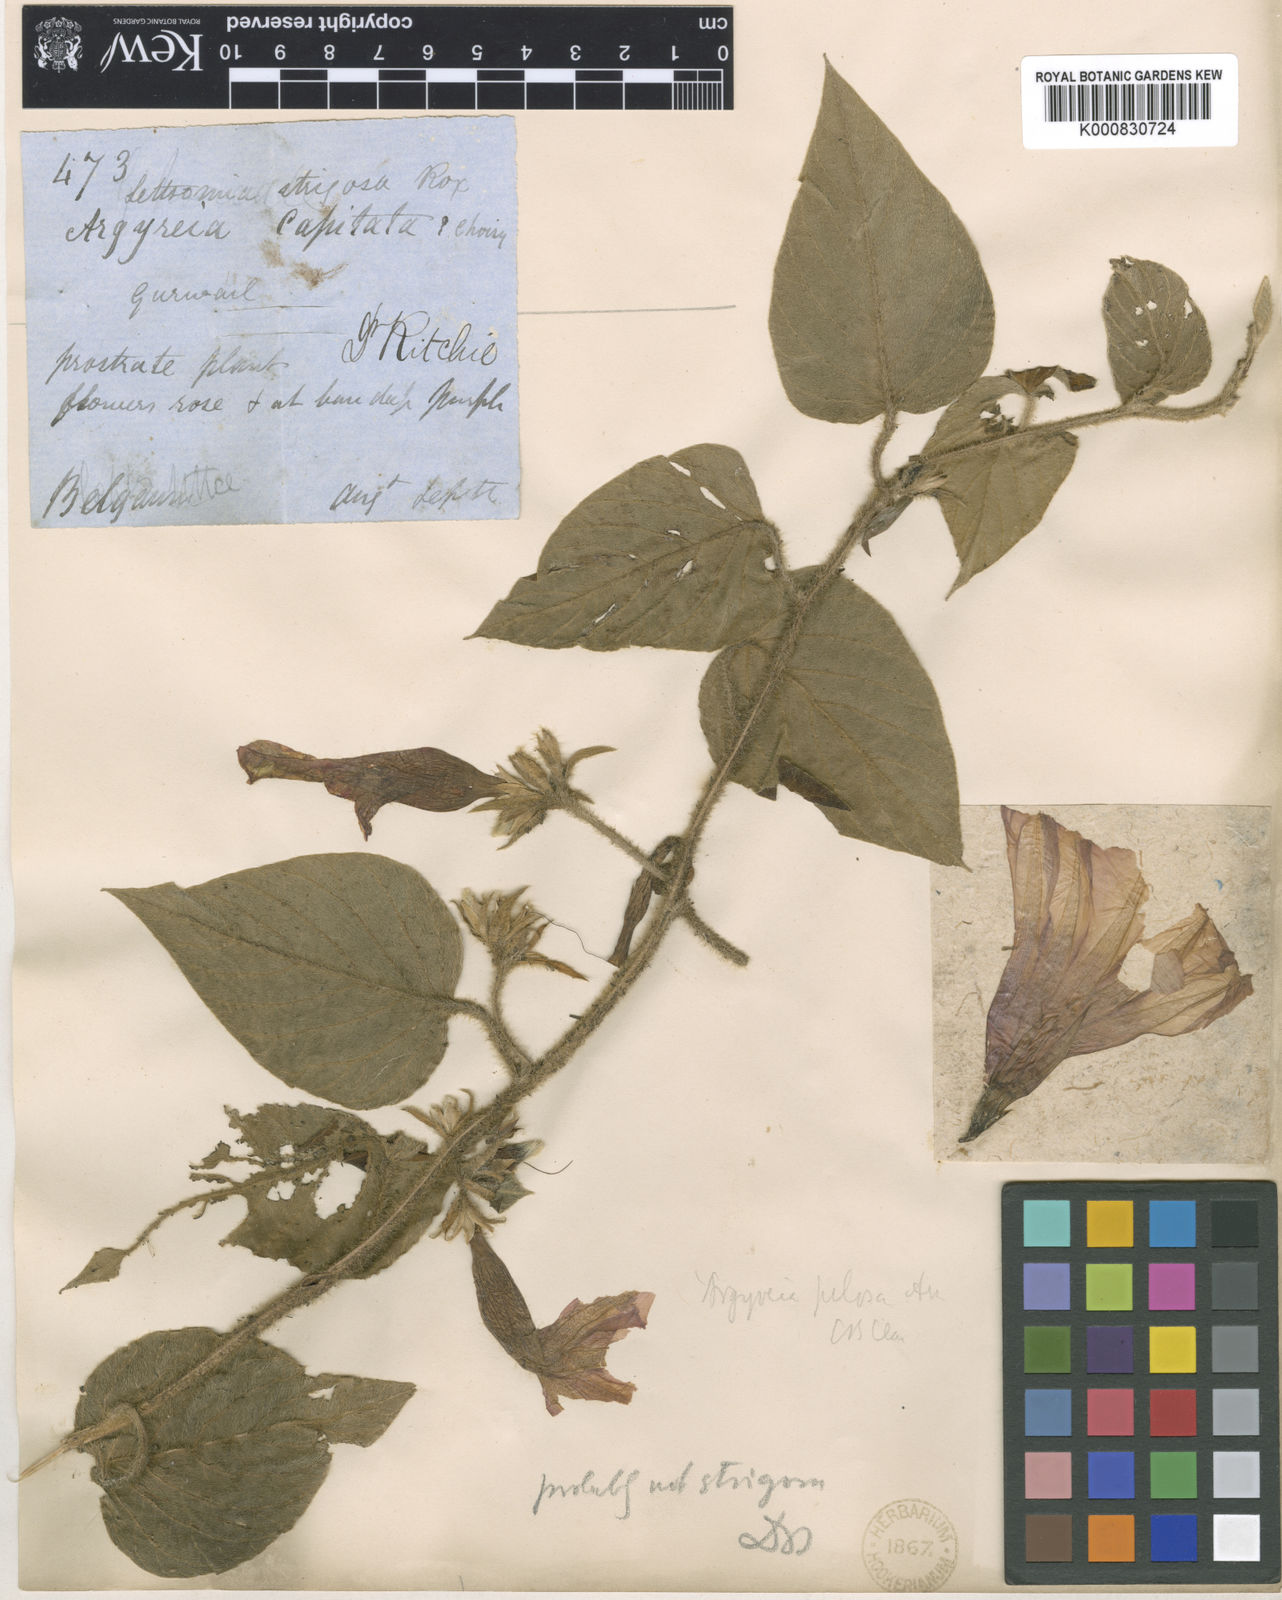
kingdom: Plantae
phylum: Tracheophyta
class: Magnoliopsida
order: Solanales
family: Convolvulaceae
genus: Argyreia
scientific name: Argyreia srinivasanii
